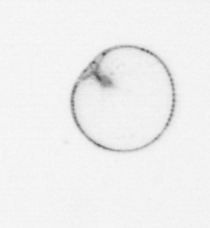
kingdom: Chromista
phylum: Myzozoa
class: Dinophyceae
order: Noctilucales
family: Noctilucaceae
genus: Noctiluca
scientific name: Noctiluca scintillans
